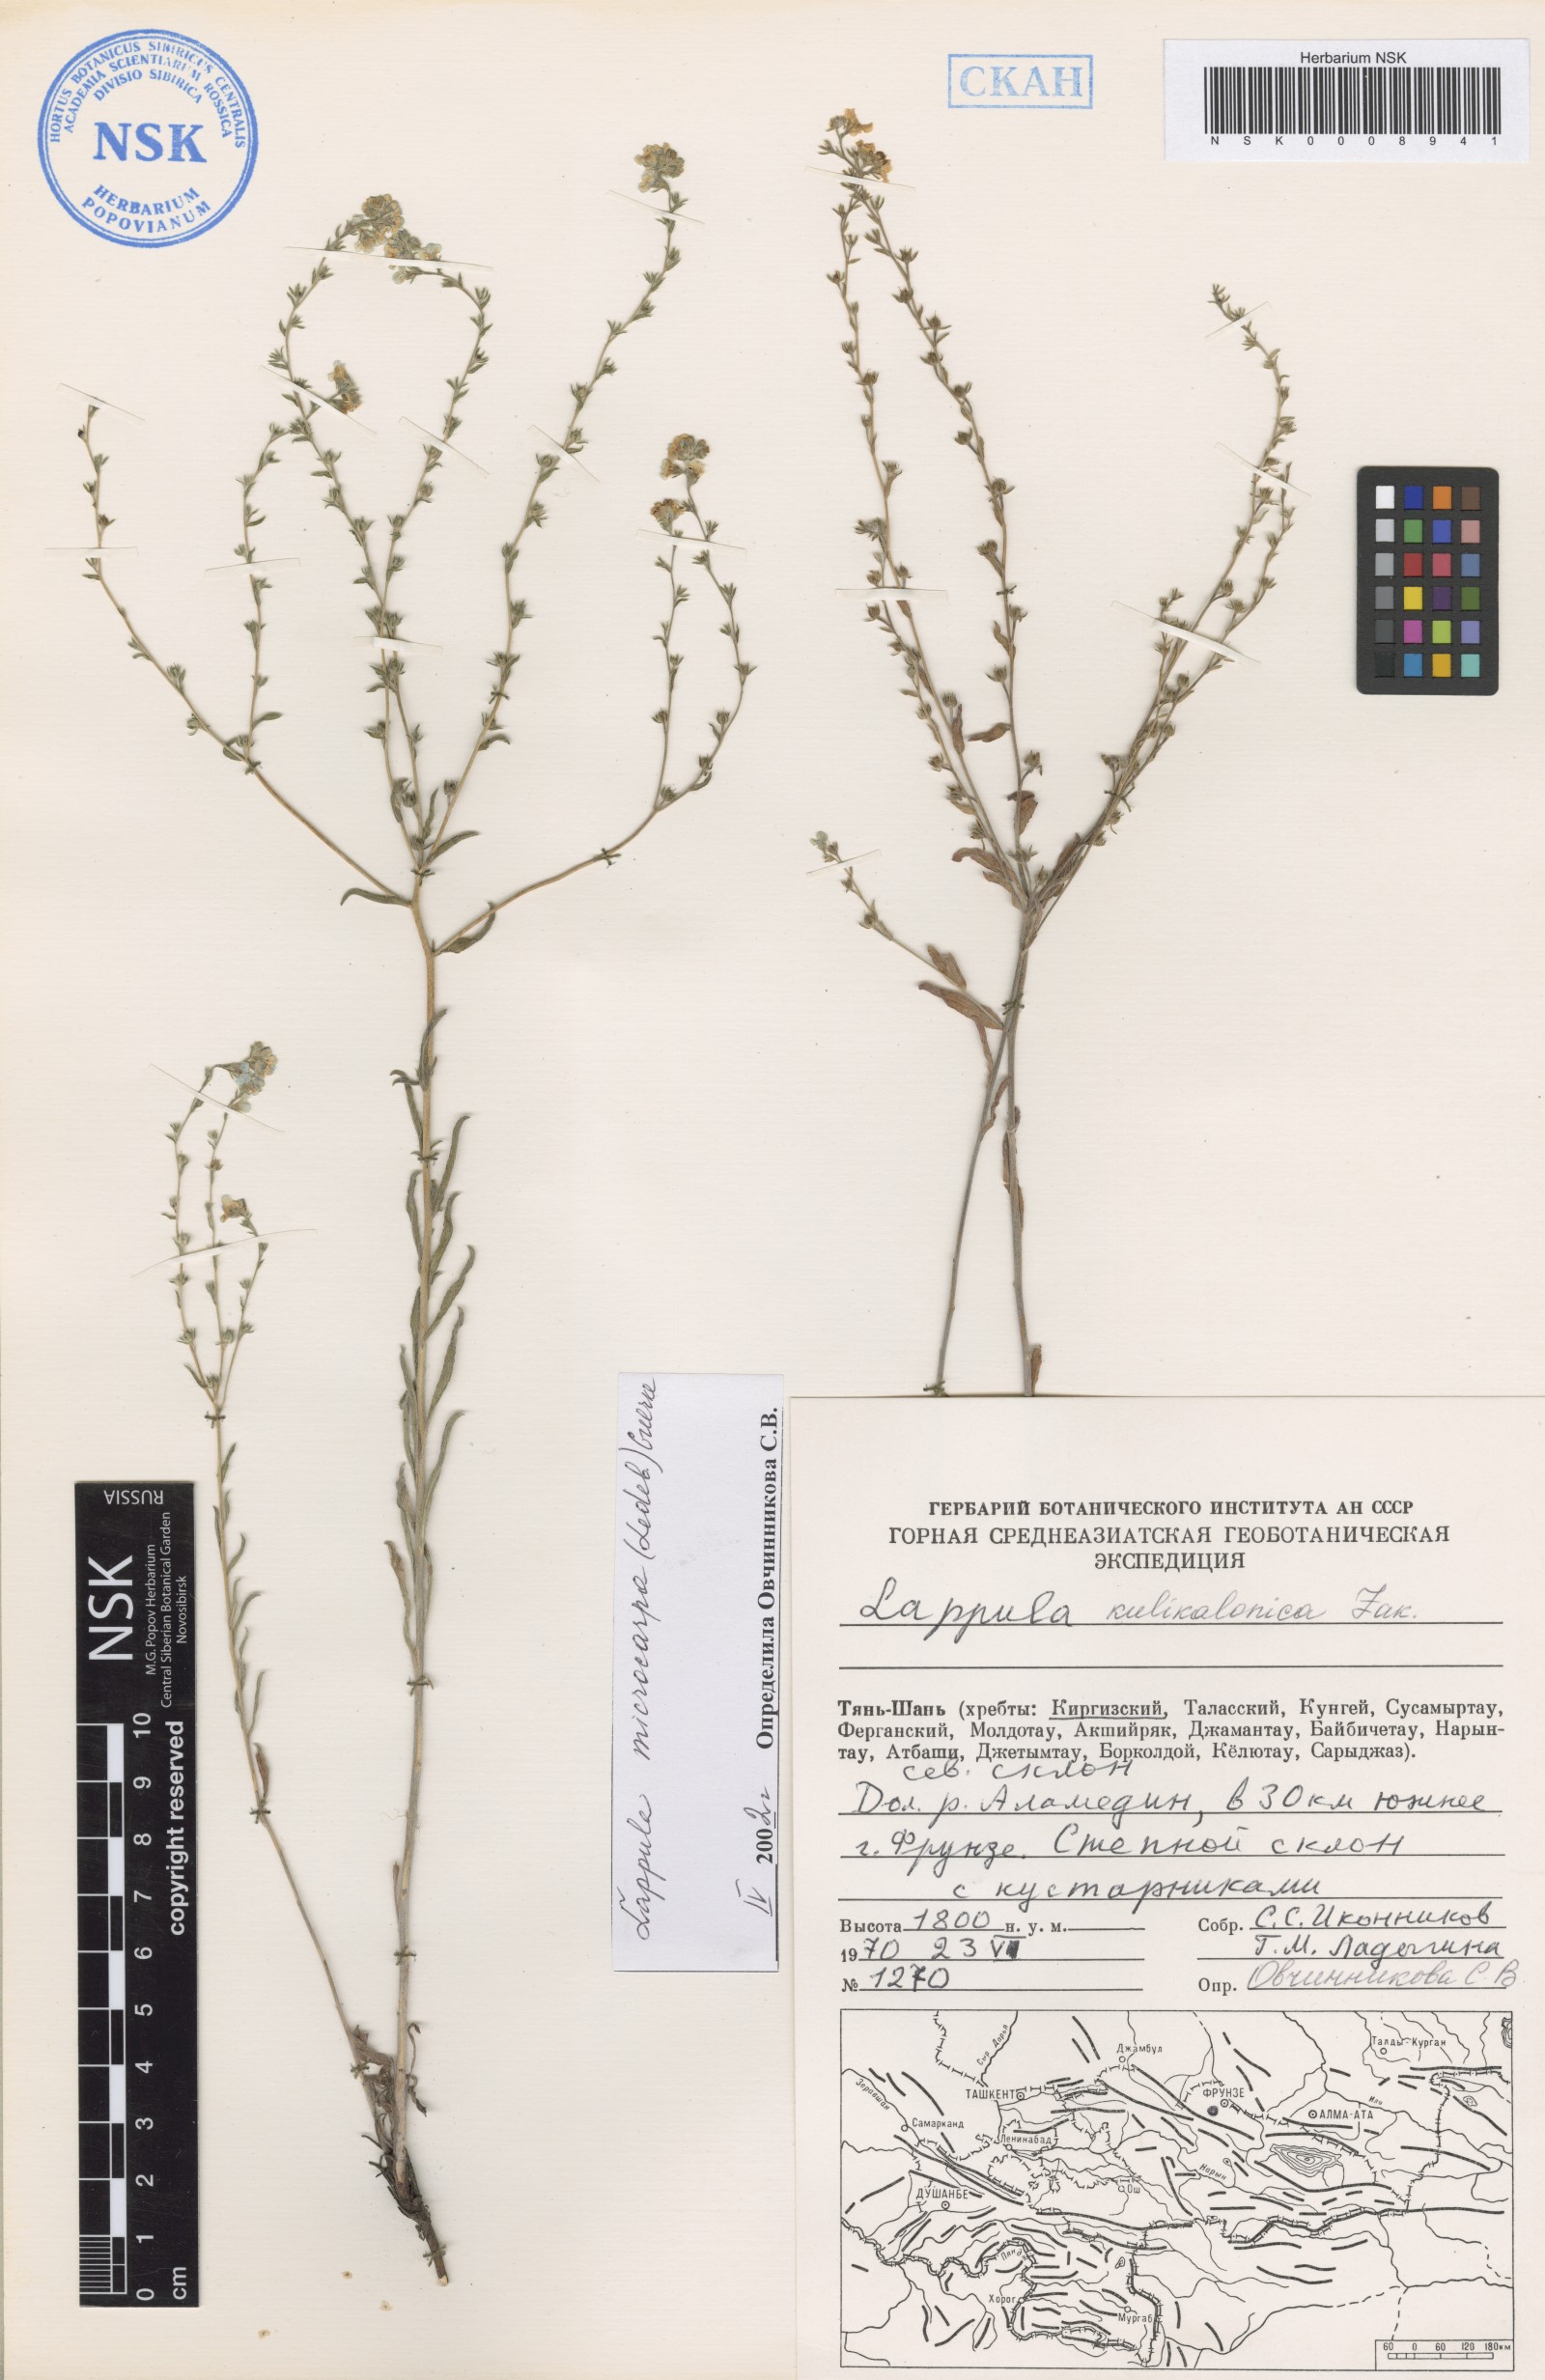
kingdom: Plantae
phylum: Tracheophyta
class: Magnoliopsida
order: Boraginales
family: Boraginaceae
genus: Lappula
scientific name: Lappula microcarpa
